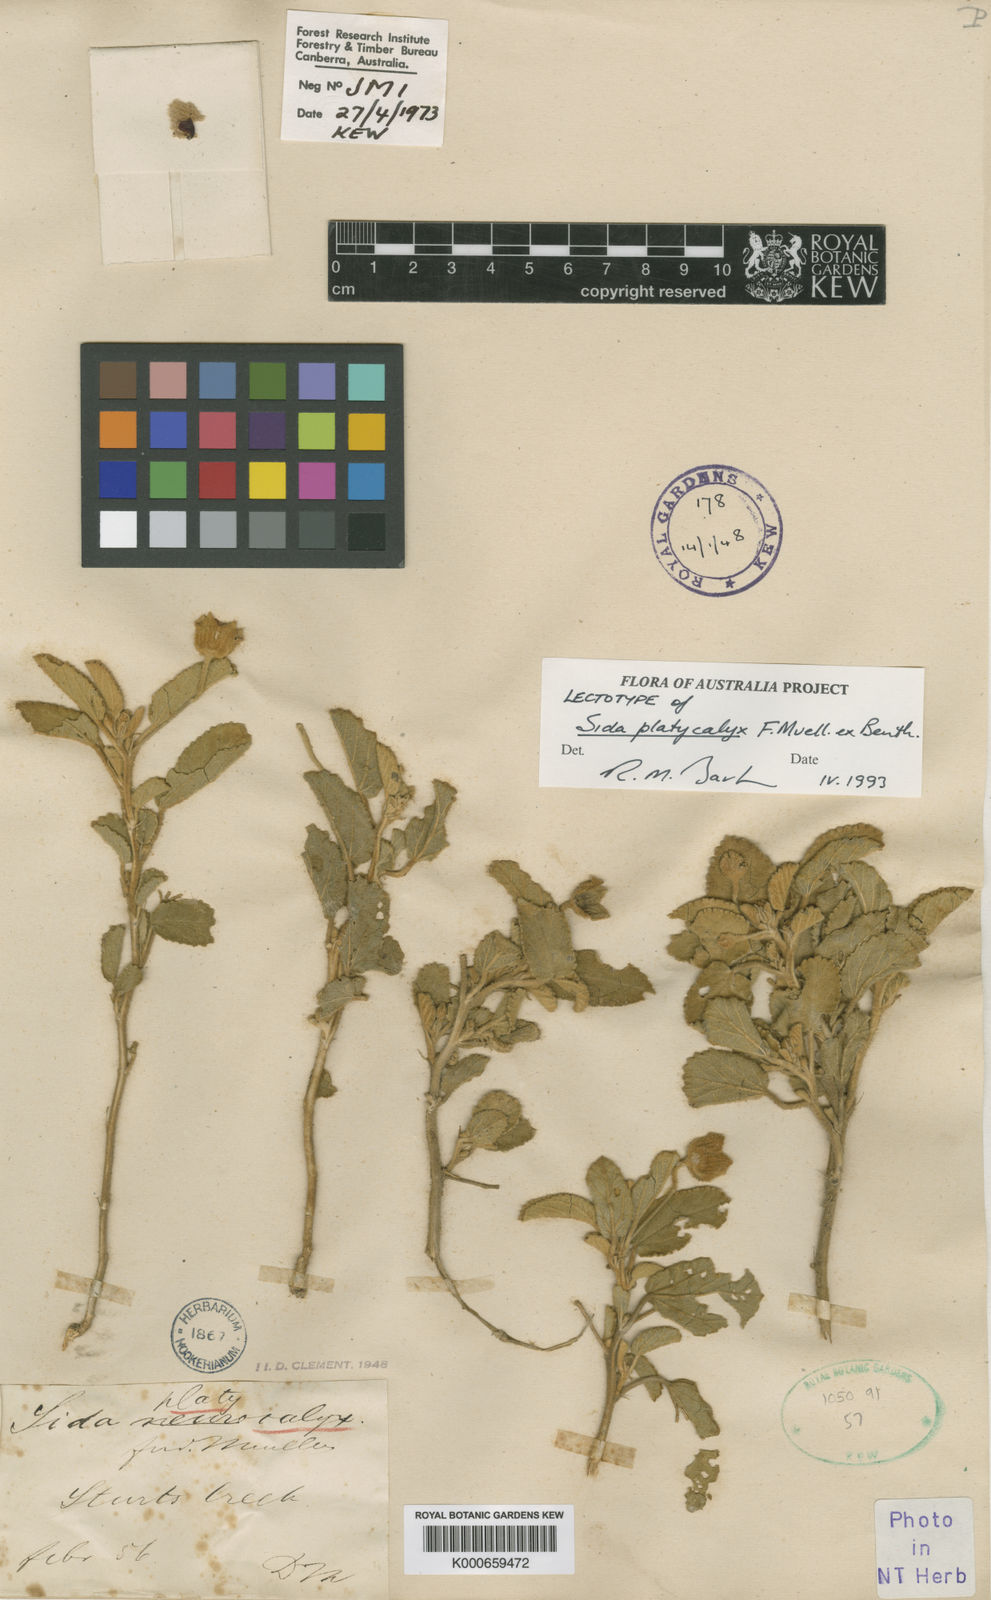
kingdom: Plantae
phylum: Tracheophyta
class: Magnoliopsida
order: Malvales
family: Malvaceae
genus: Sida
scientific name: Sida platycalyx
